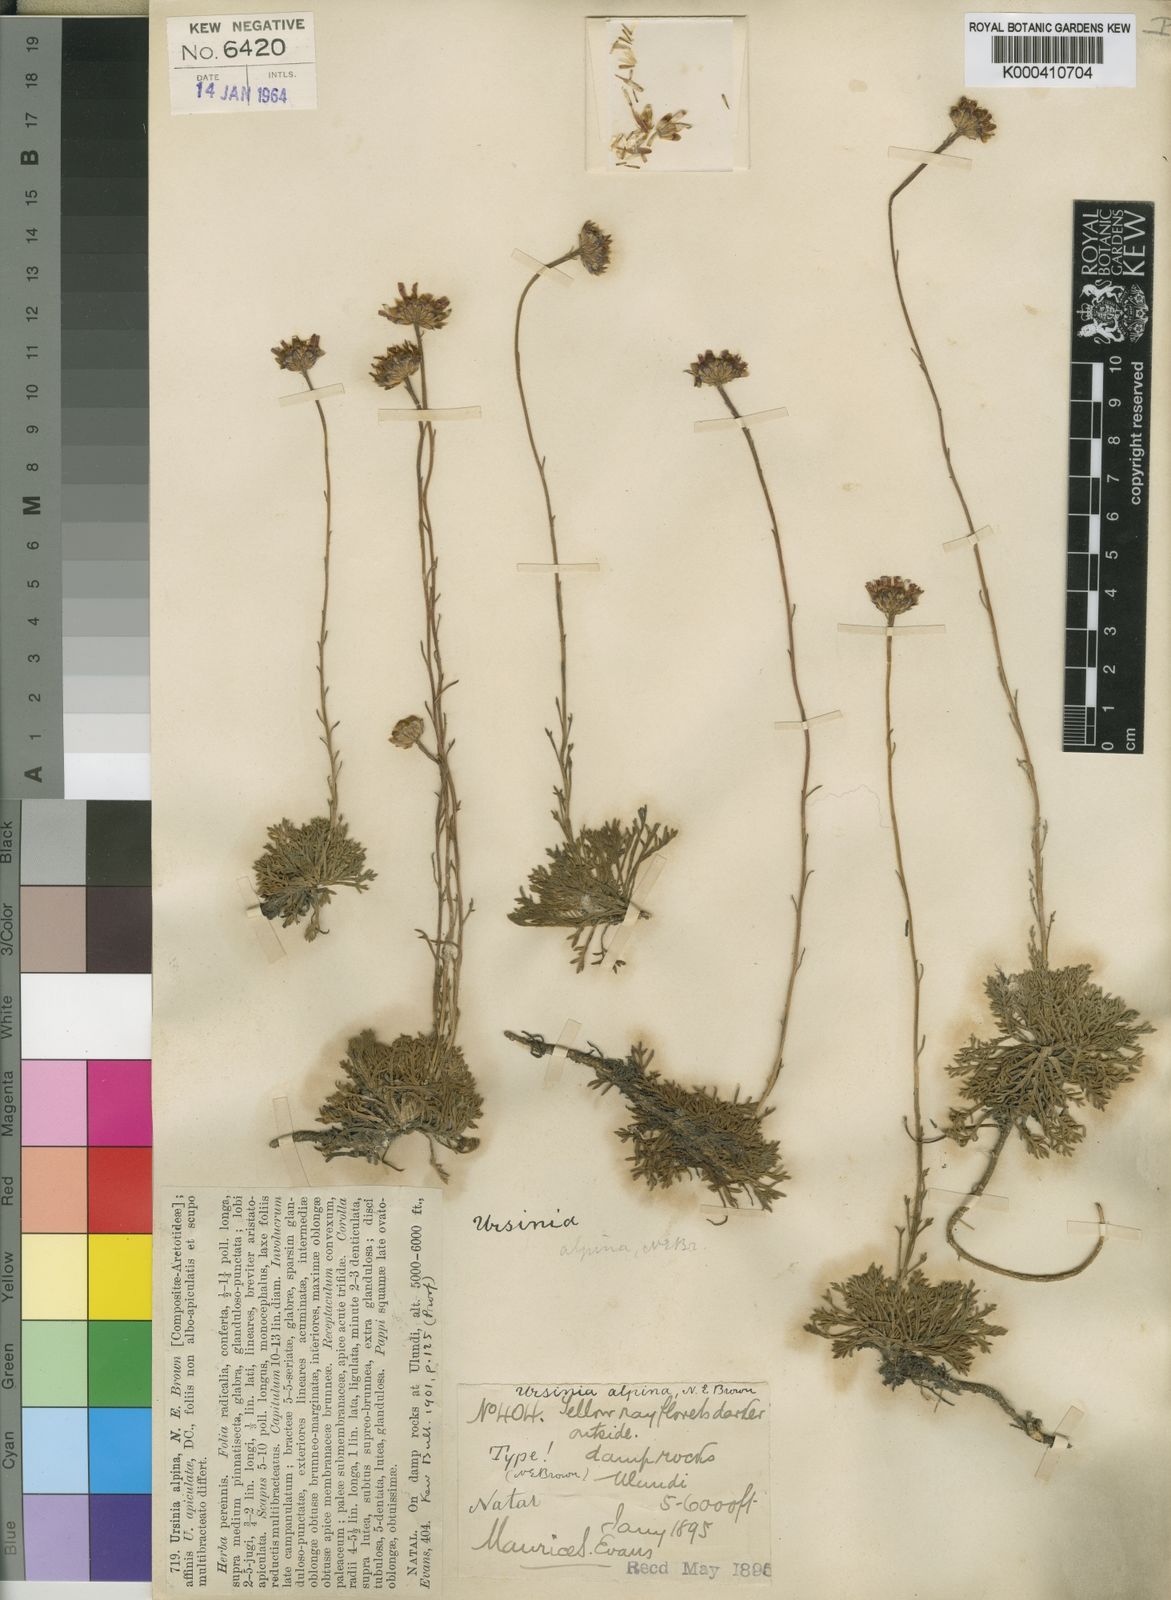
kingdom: Plantae
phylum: Tracheophyta
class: Magnoliopsida
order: Asterales
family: Asteraceae
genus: Ursinia
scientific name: Ursinia saxatilis
